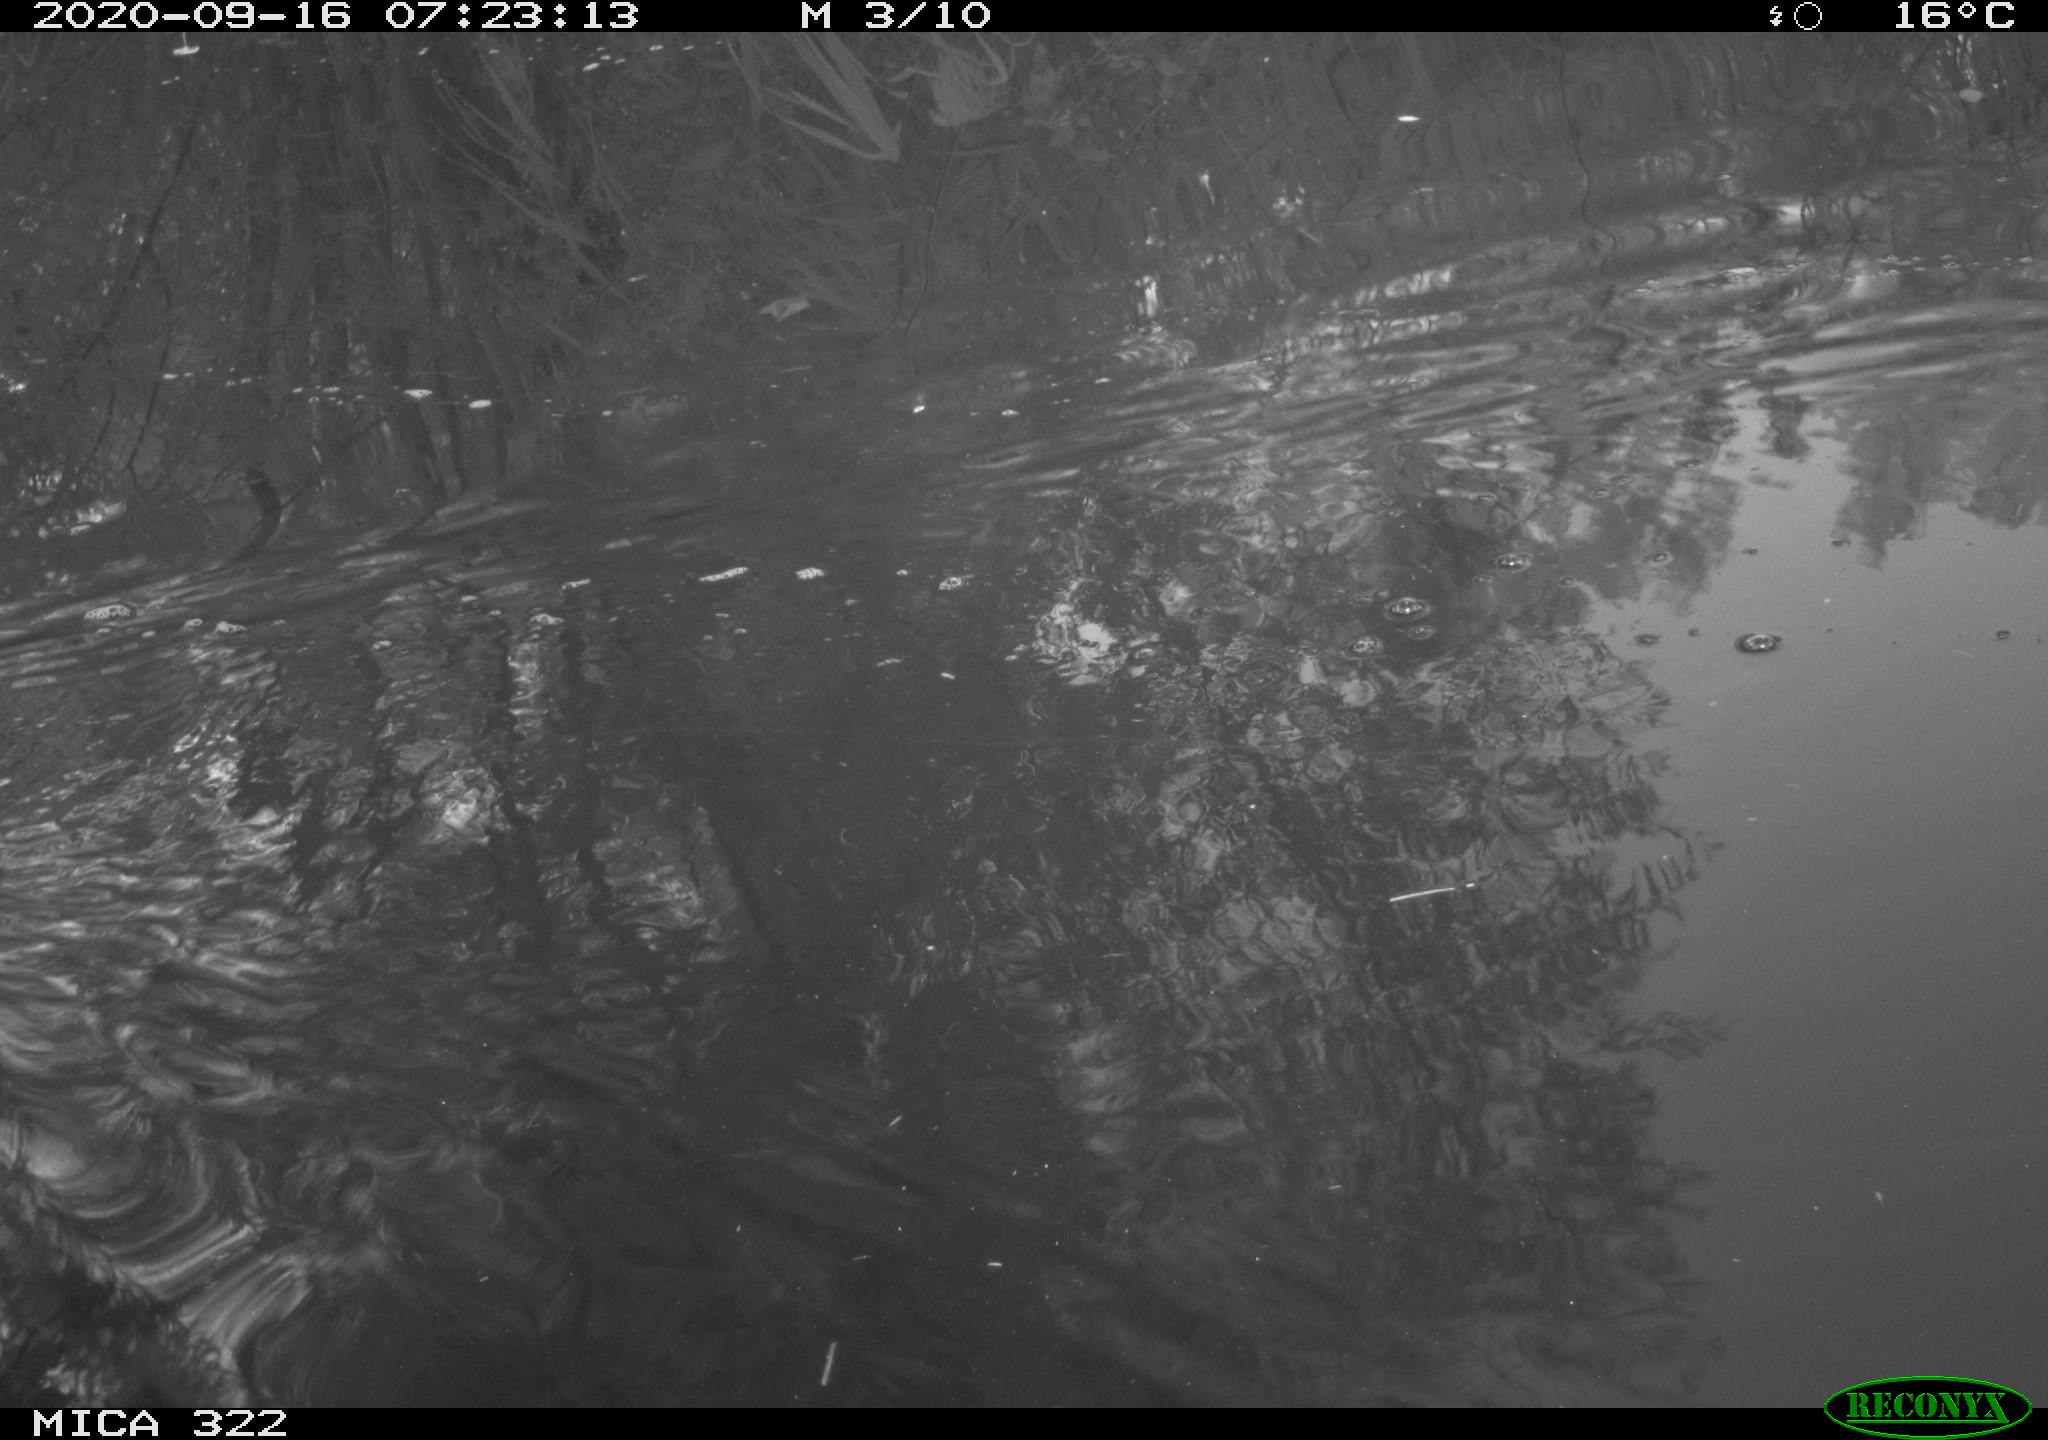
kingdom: Animalia
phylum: Chordata
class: Aves
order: Gruiformes
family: Rallidae
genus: Fulica
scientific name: Fulica atra
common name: Eurasian coot
